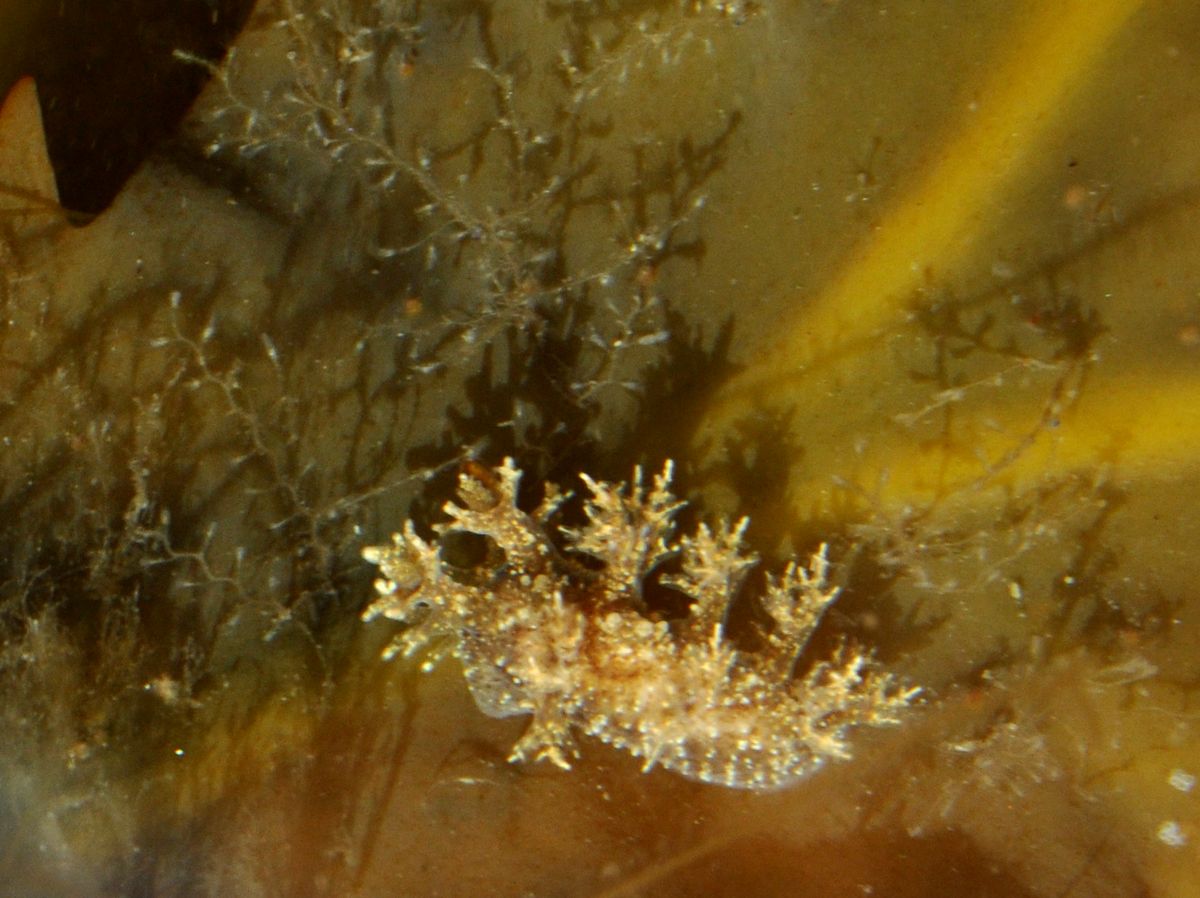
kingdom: Animalia
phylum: Mollusca
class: Gastropoda
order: Nudibranchia
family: Dendronotidae
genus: Dendronotus
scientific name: Dendronotus frondosus
